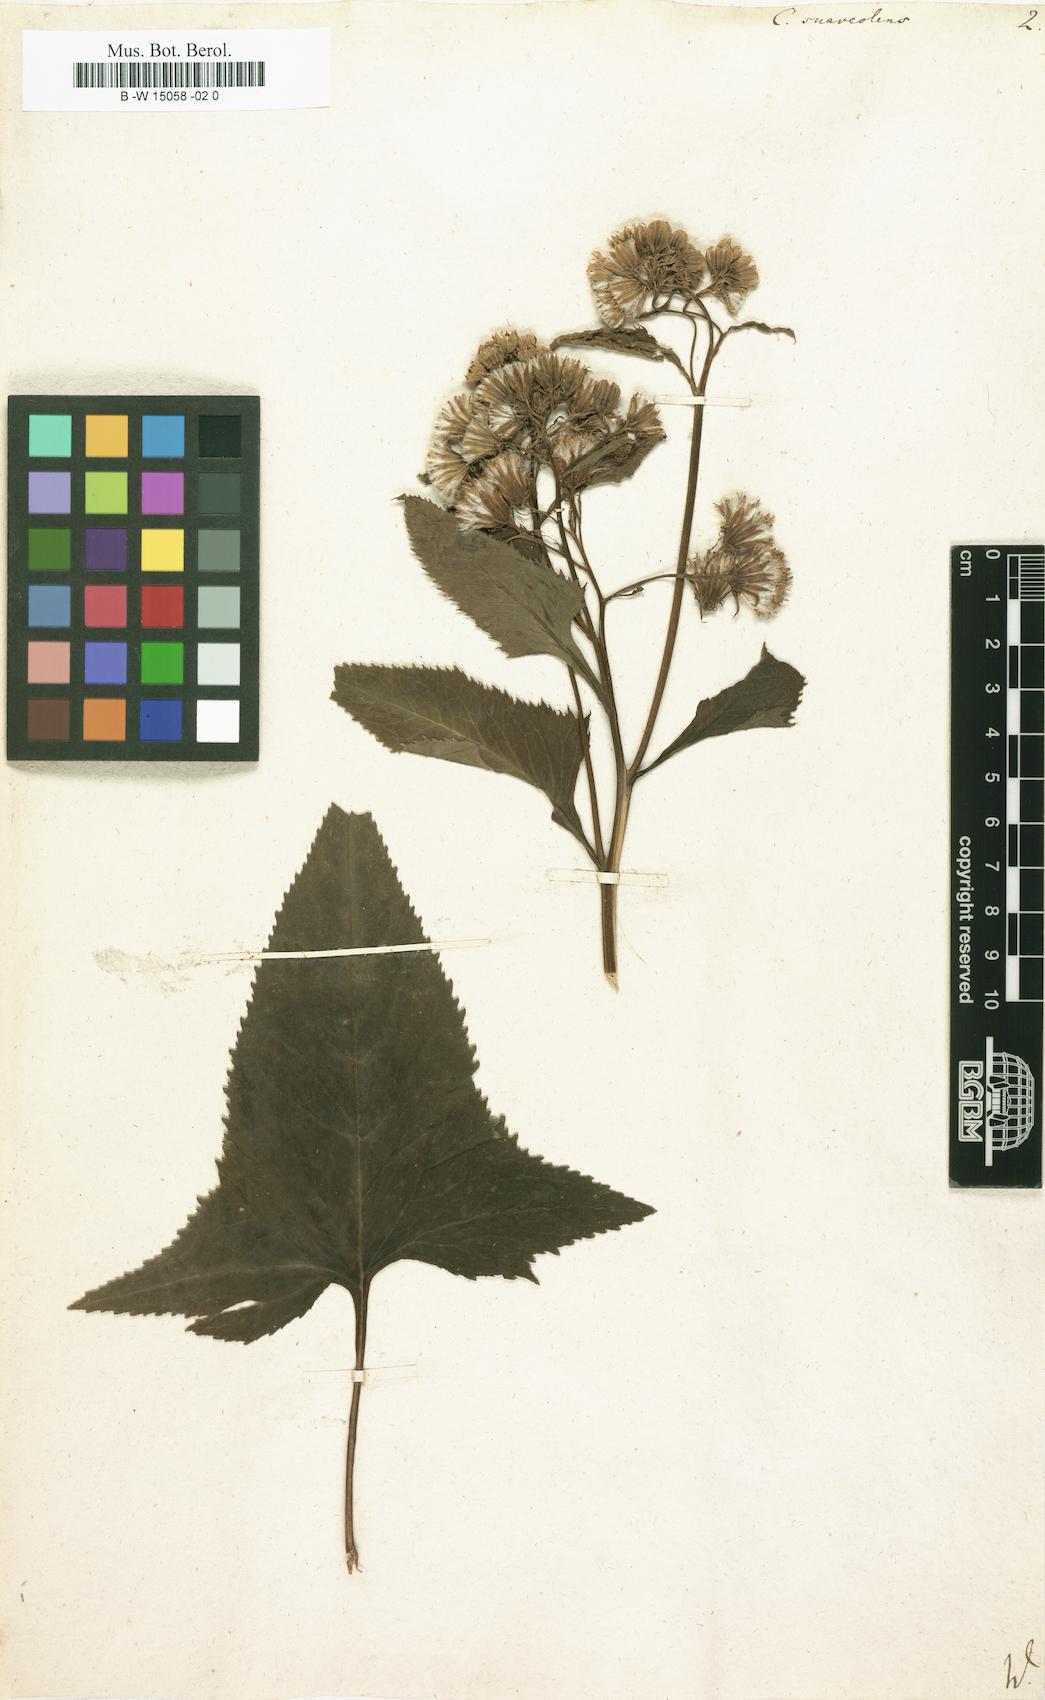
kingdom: Plantae
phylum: Tracheophyta
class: Magnoliopsida
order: Asterales
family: Asteraceae
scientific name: Asteraceae
